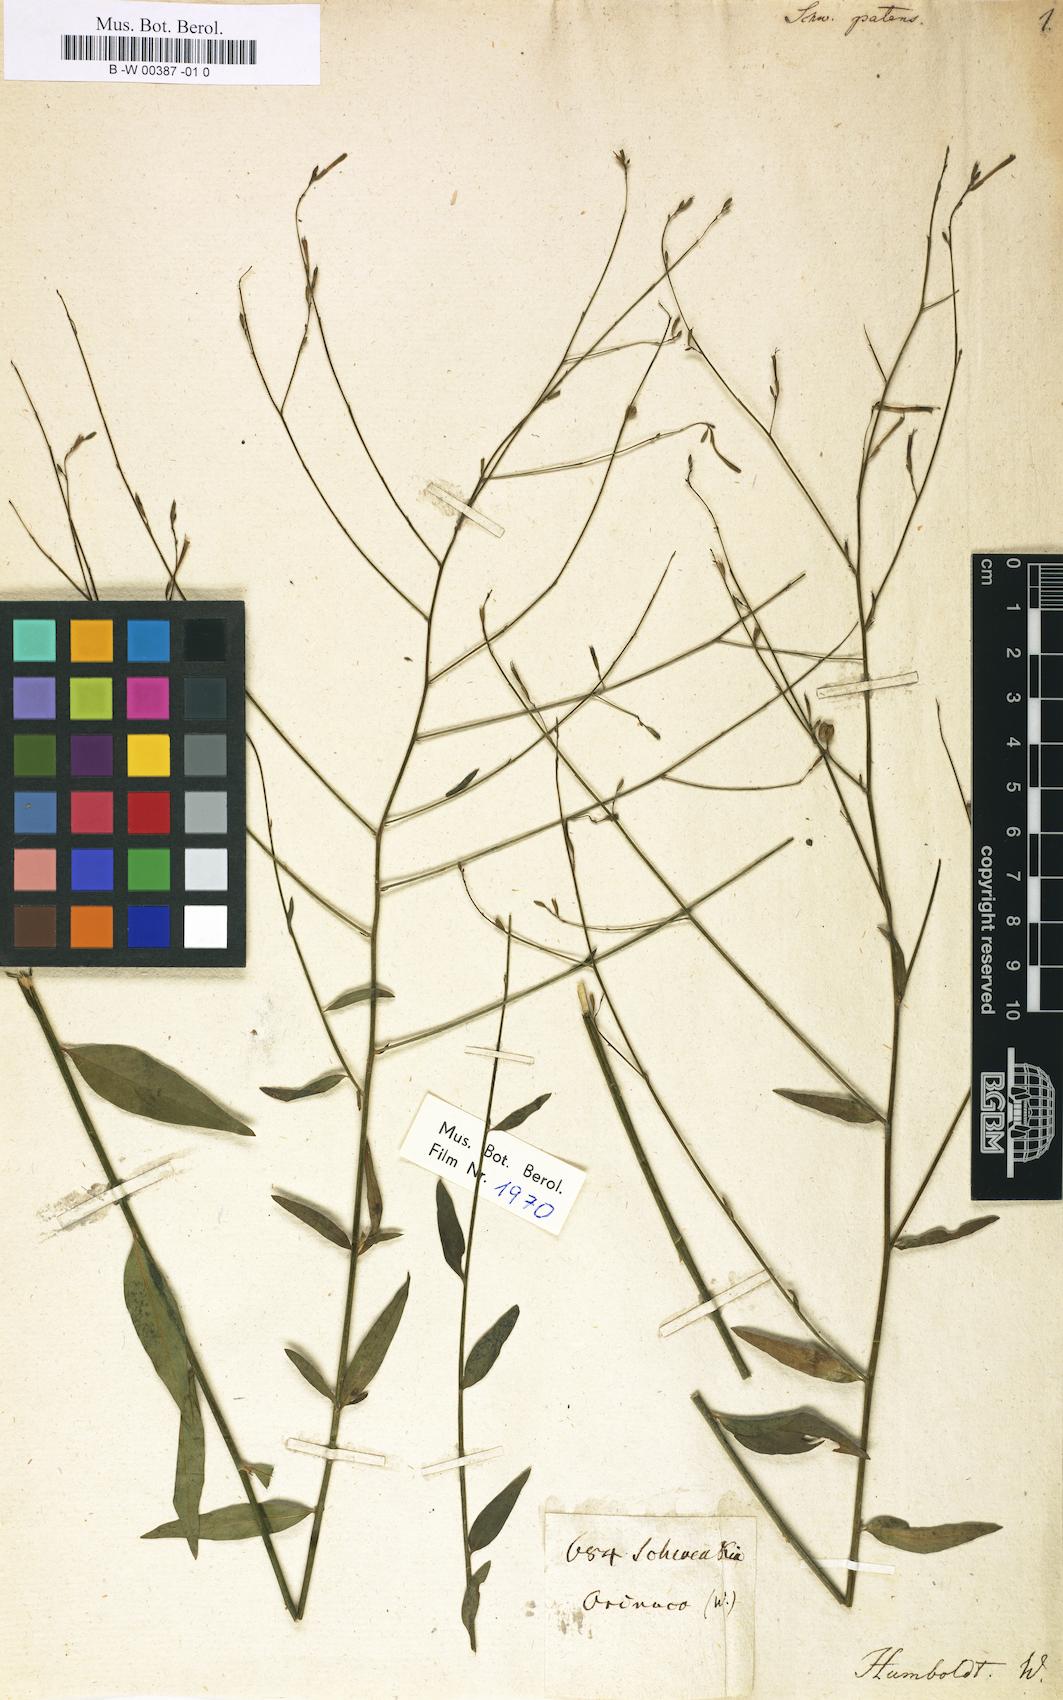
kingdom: Plantae
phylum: Tracheophyta
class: Magnoliopsida
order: Solanales
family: Solanaceae
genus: Schwenckia
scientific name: Schwenckia glabrata
